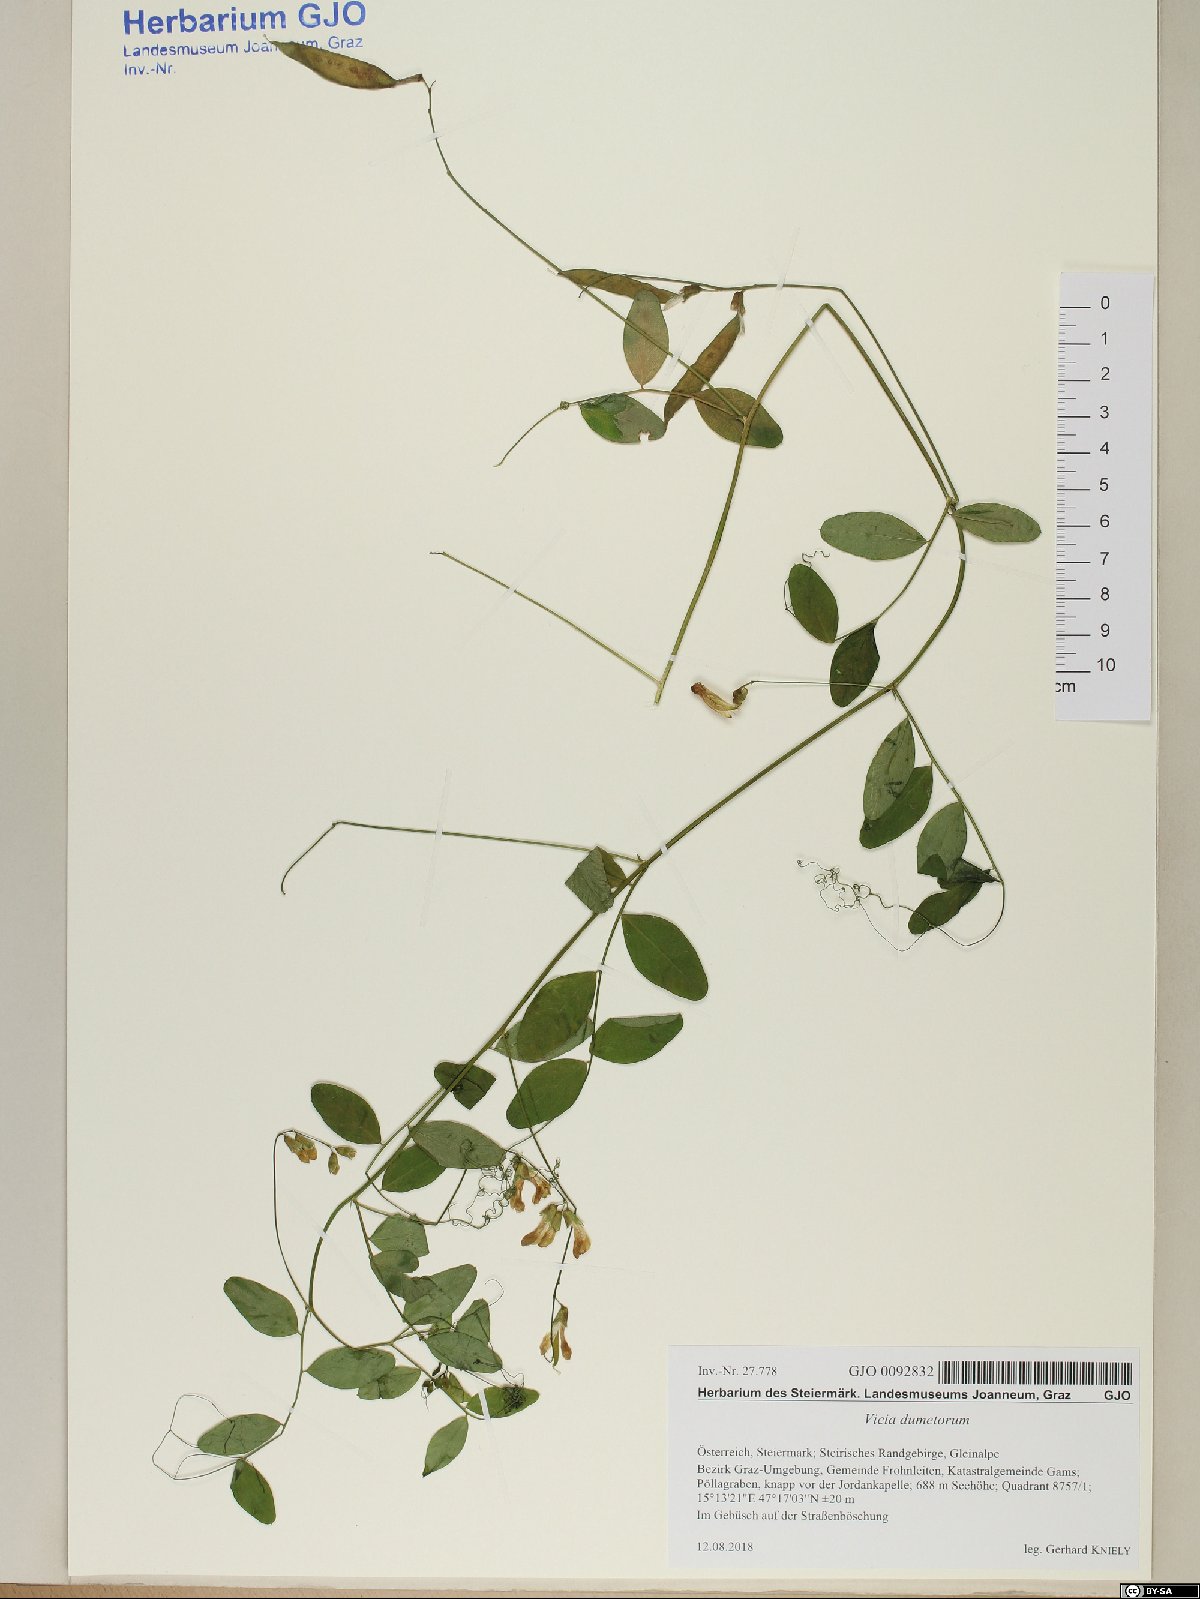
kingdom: Plantae
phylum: Tracheophyta
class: Magnoliopsida
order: Fabales
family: Fabaceae
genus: Vicia
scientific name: Vicia dumetorum
